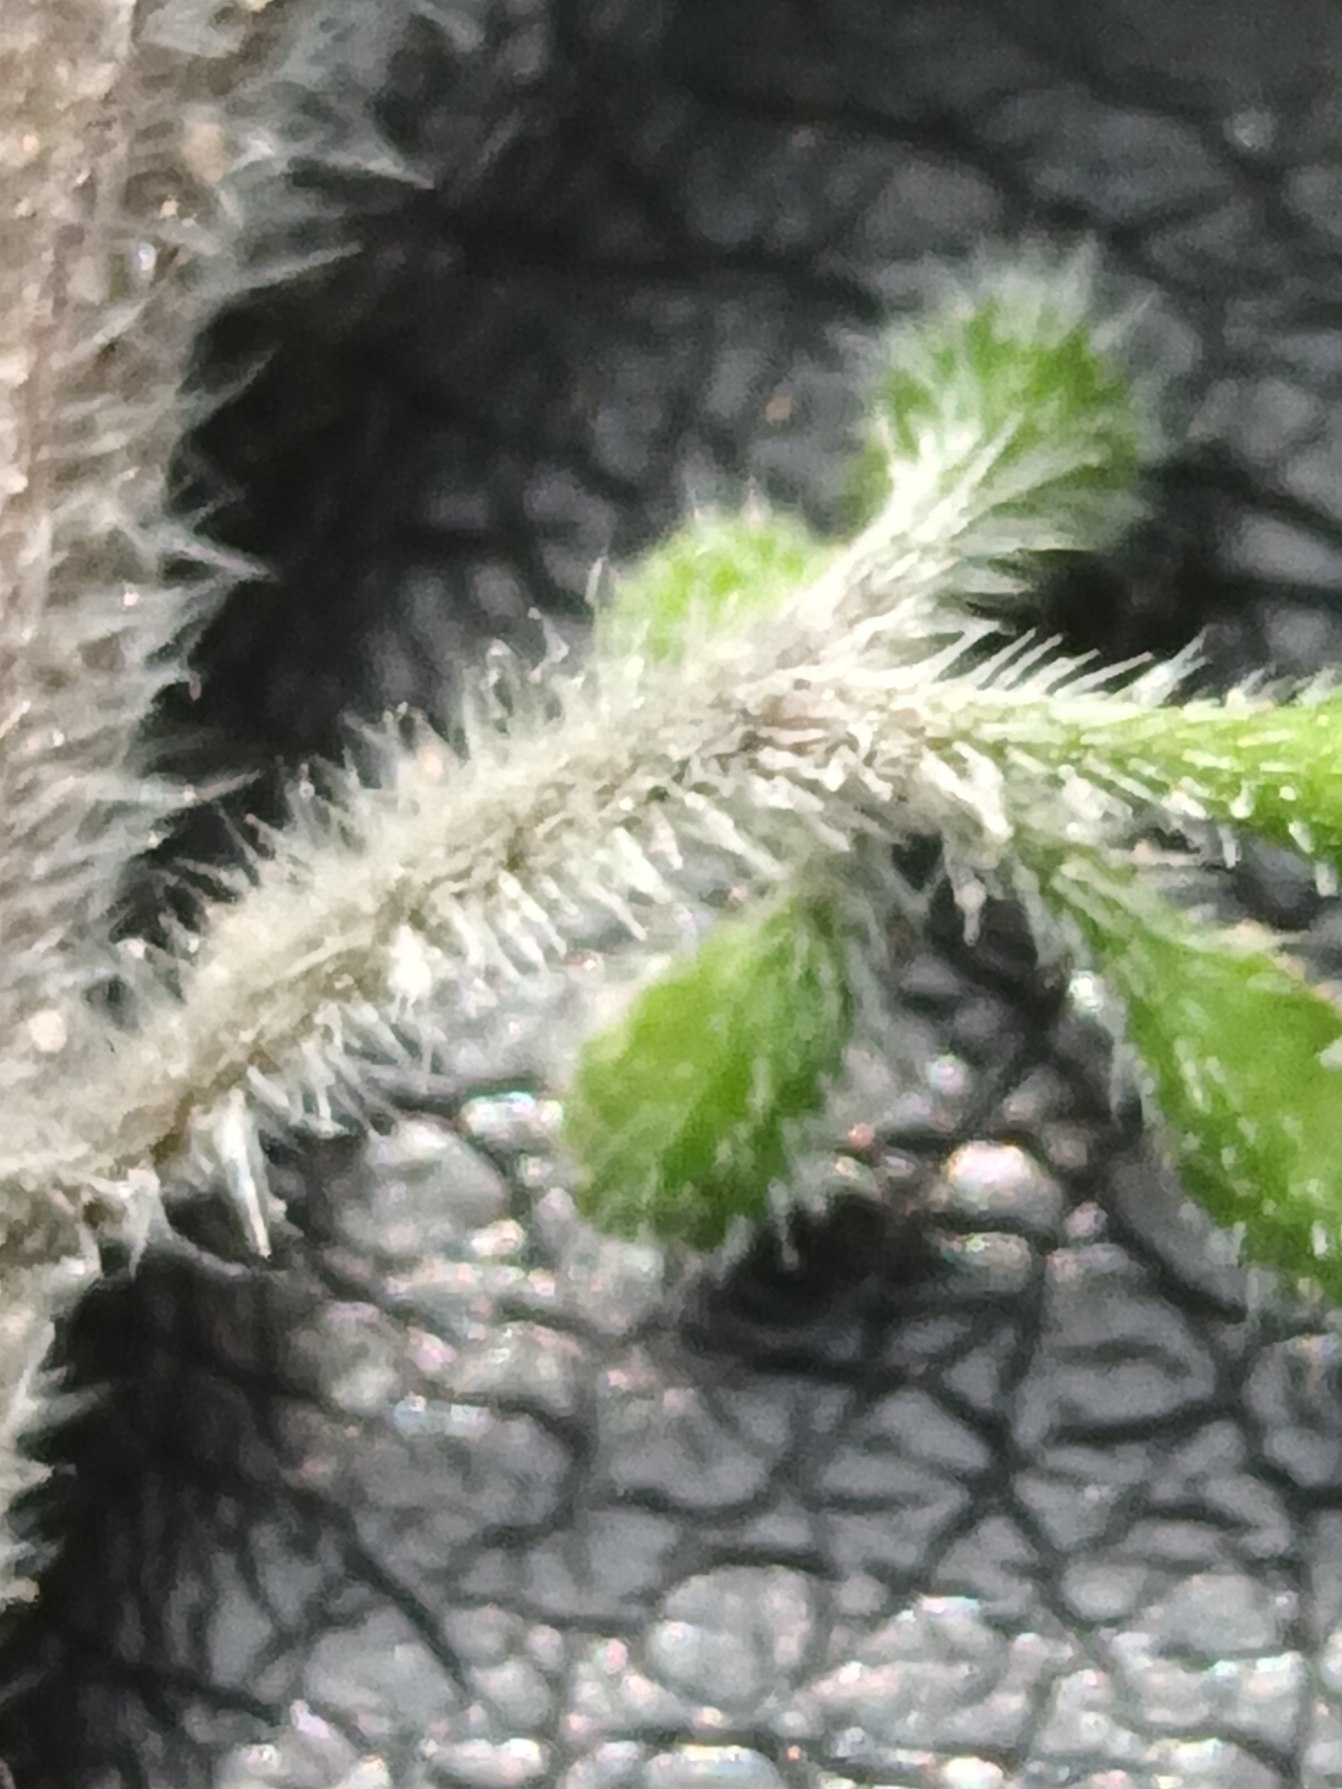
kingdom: Plantae
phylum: Tracheophyta
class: Magnoliopsida
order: Solanales
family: Solanaceae
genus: Solanum
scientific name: Solanum decipiens
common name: Kirtel-natskygge
